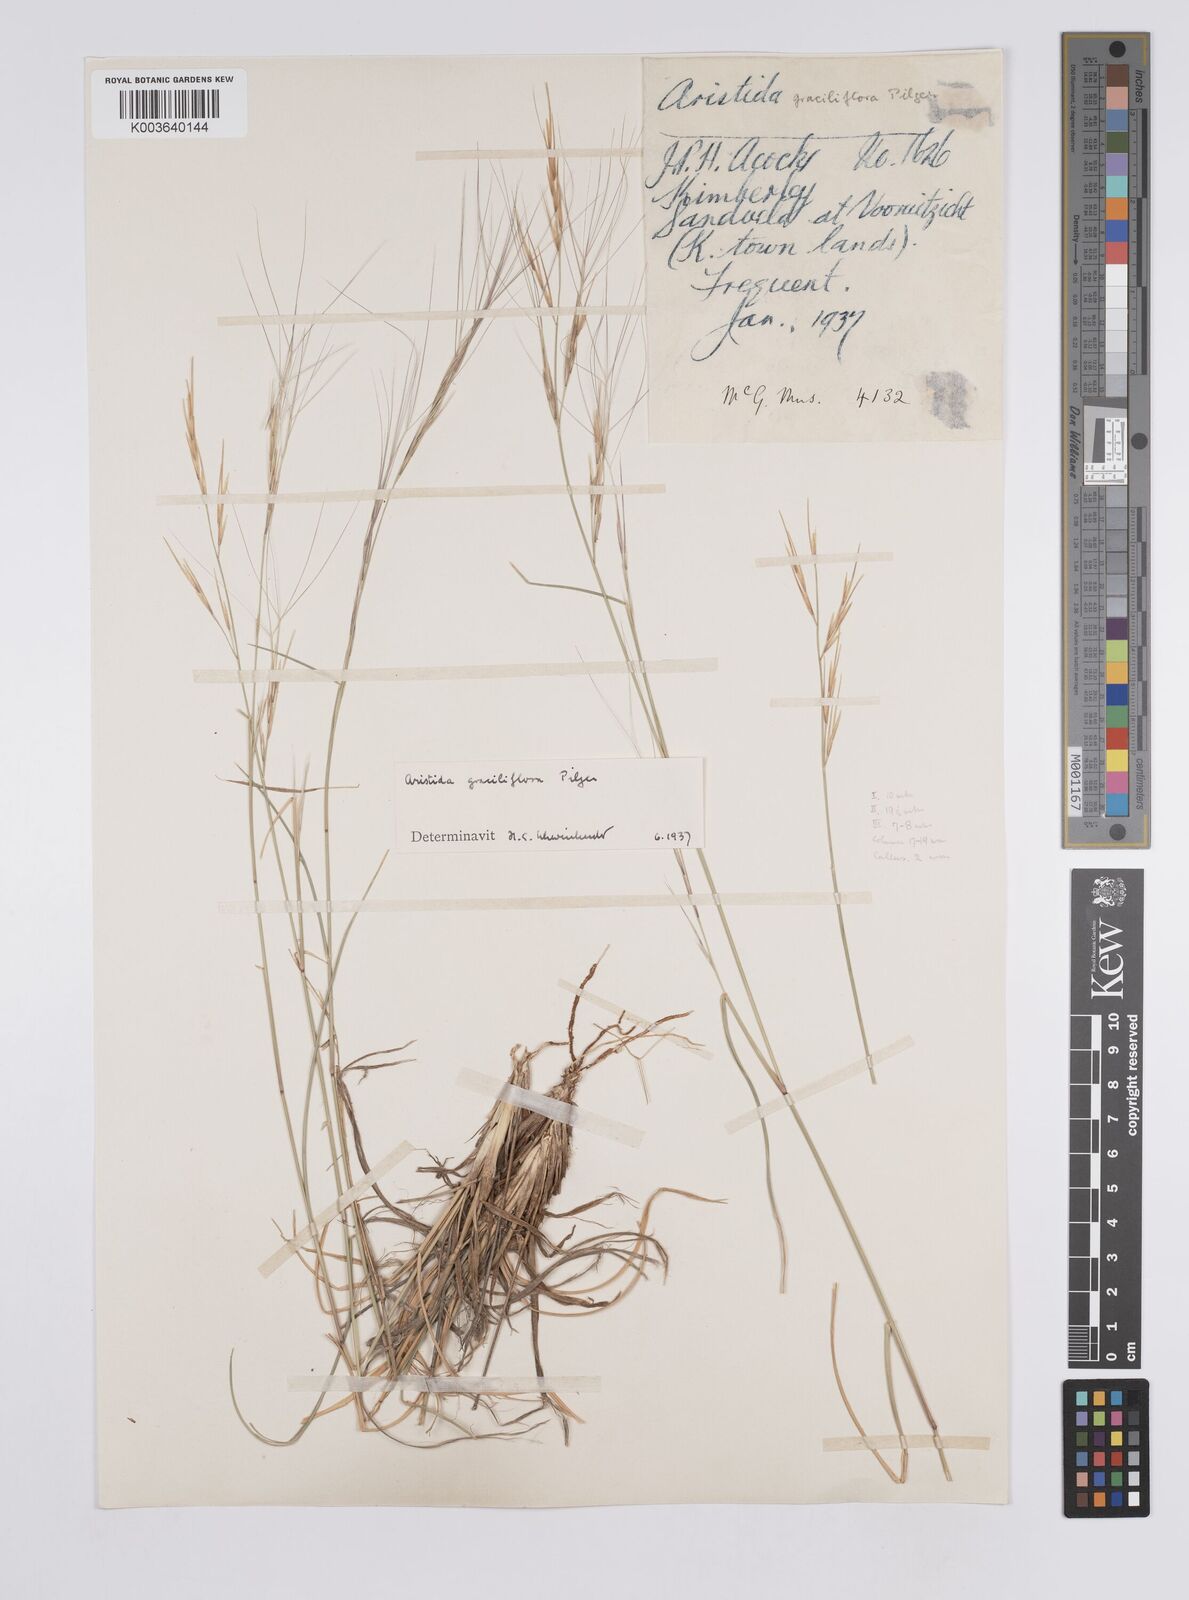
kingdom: Plantae
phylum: Tracheophyta
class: Liliopsida
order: Poales
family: Poaceae
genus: Aristida
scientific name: Aristida stipitata
